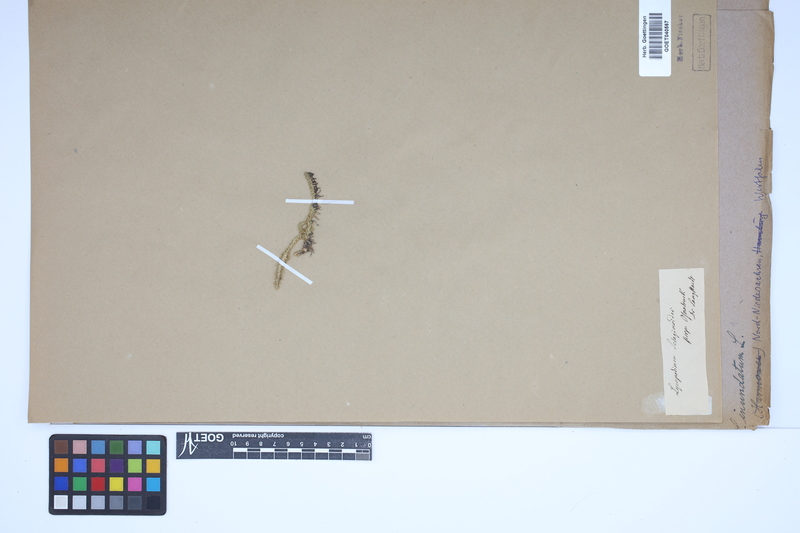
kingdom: Plantae
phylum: Tracheophyta
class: Lycopodiopsida
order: Lycopodiales
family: Lycopodiaceae
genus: Lycopodiella
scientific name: Lycopodiella inundata
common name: Marsh clubmoss
